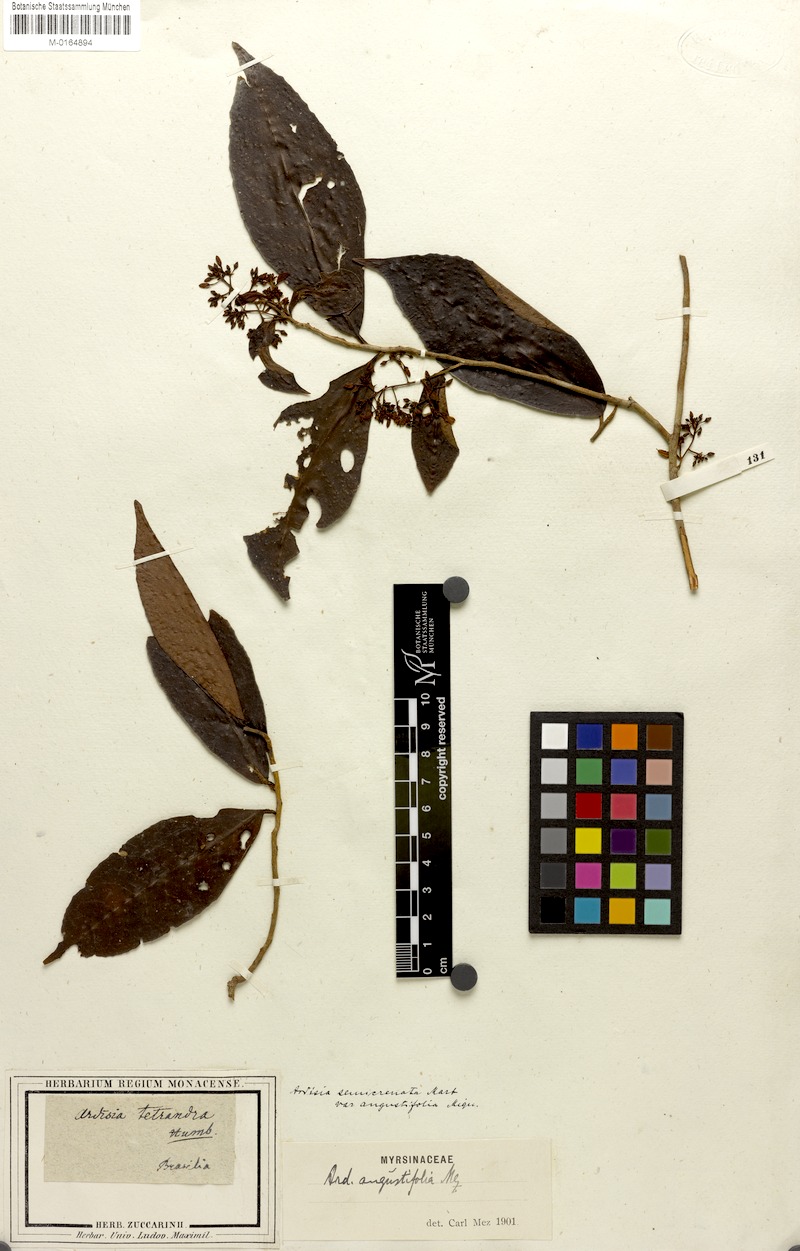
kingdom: Plantae
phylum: Tracheophyta
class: Magnoliopsida
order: Ericales
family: Primulaceae
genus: Ardisia
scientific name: Ardisia guianensis
